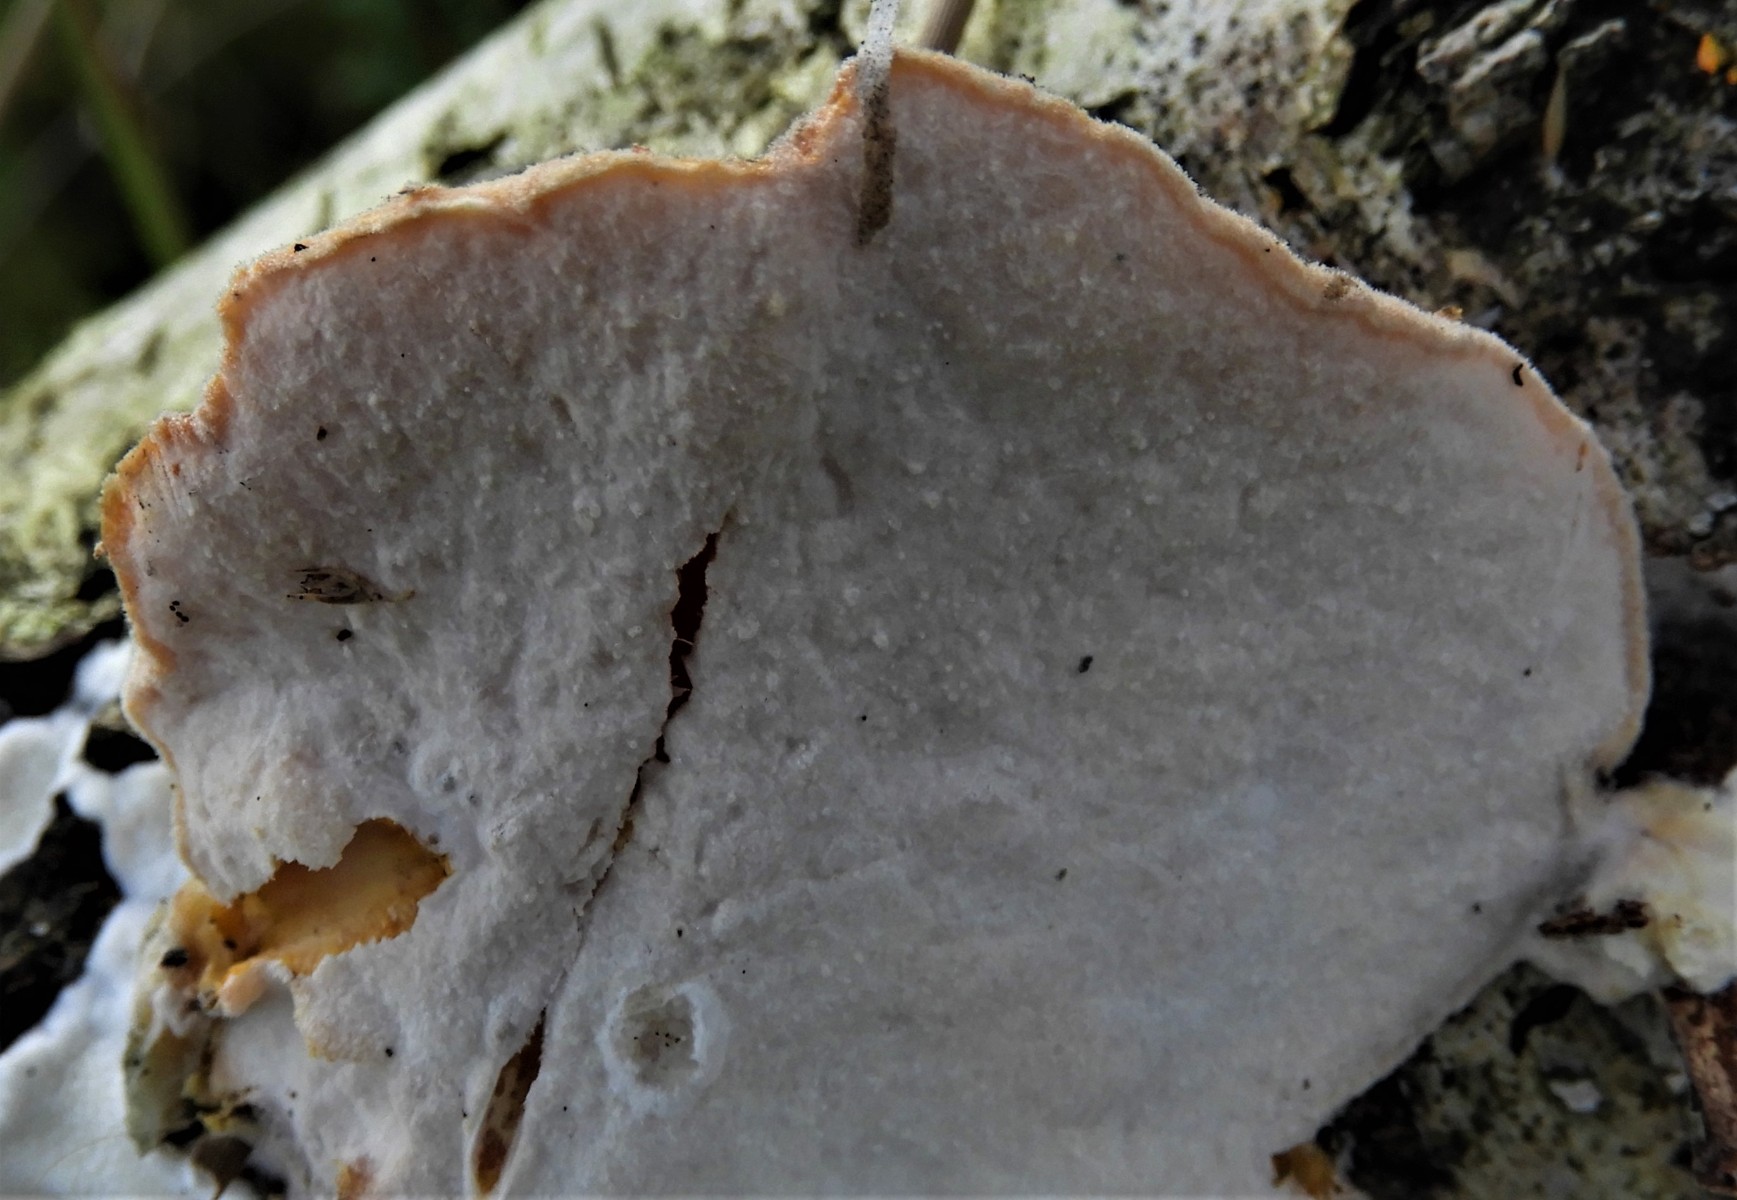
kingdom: Fungi
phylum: Ascomycota
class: Sordariomycetes
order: Hypocreales
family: Hypocreaceae
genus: Protocrea
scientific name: Protocrea pallida
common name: bleg kødkerne
